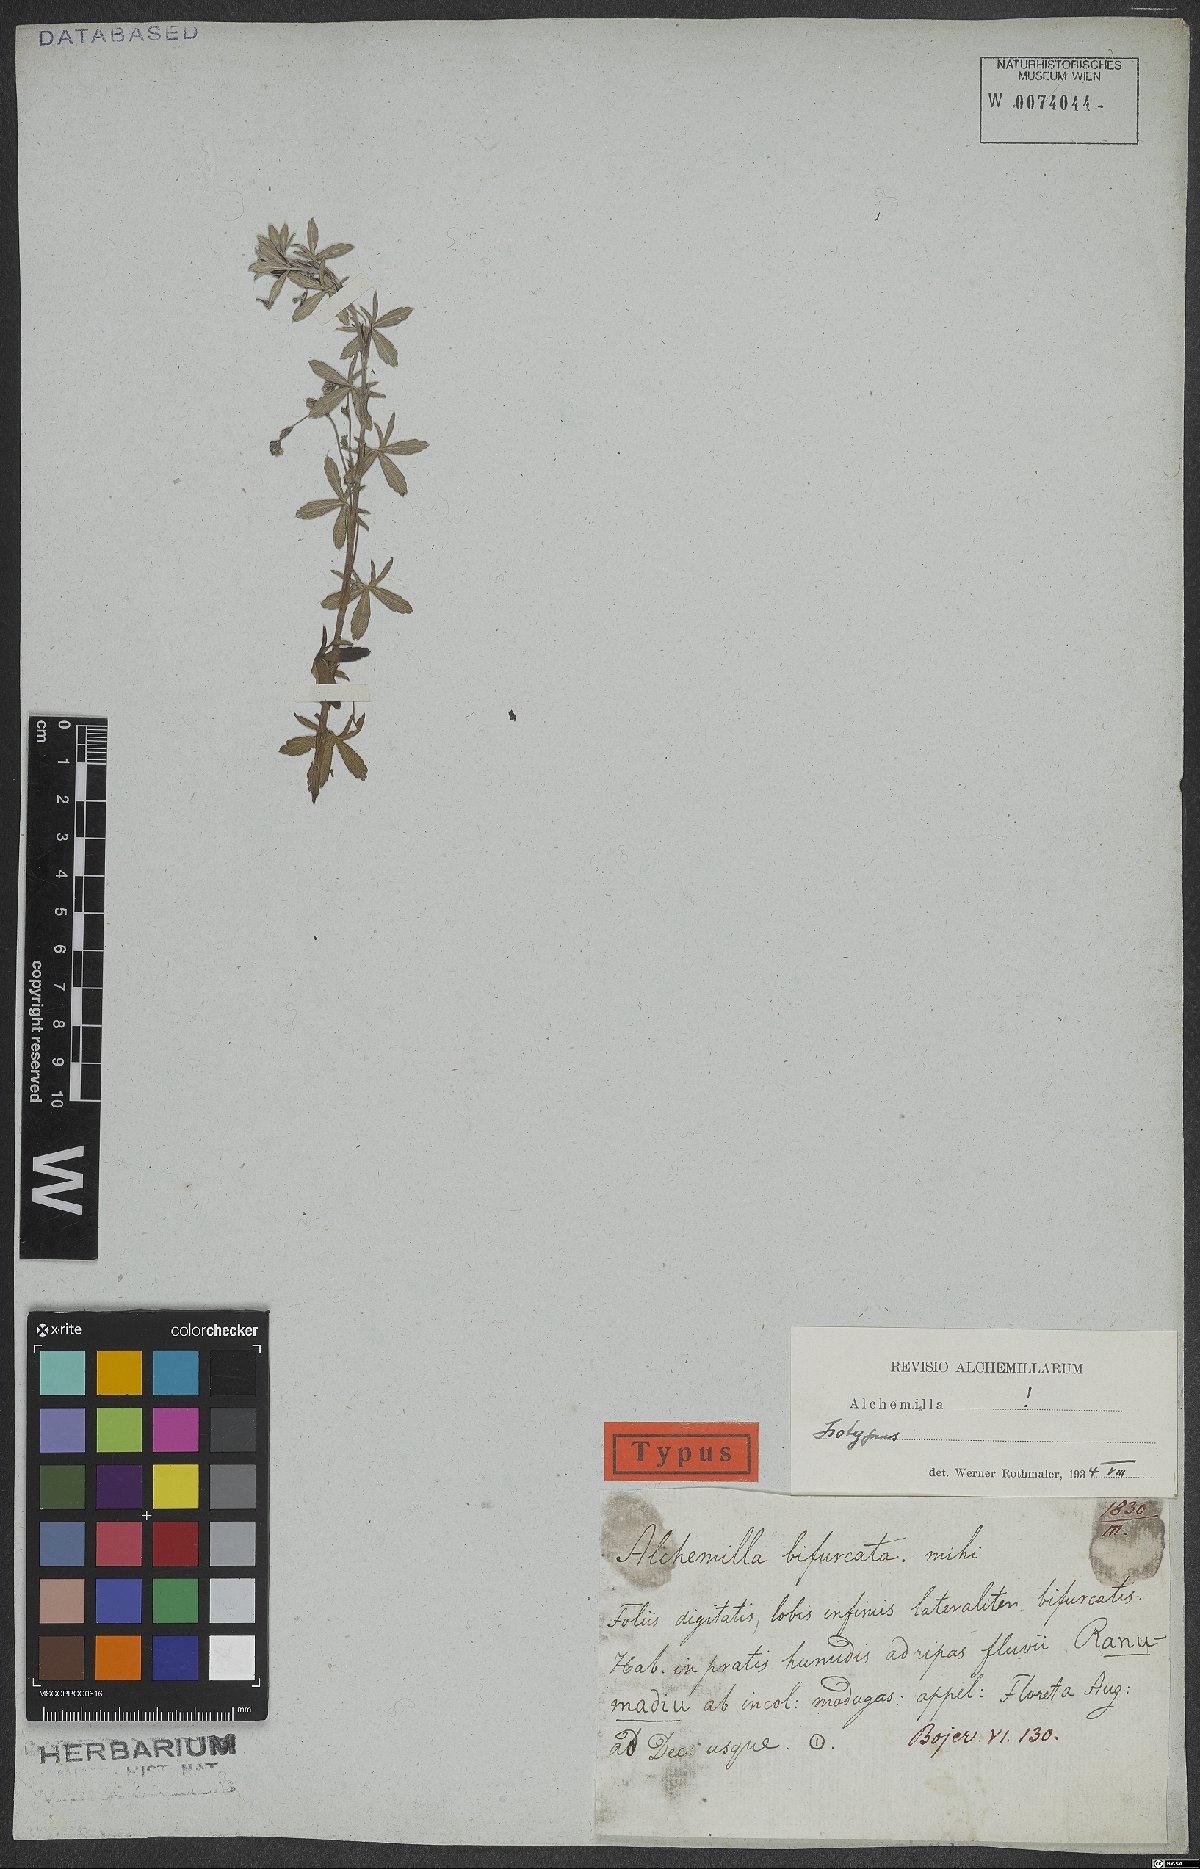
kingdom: Plantae
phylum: Tracheophyta
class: Magnoliopsida
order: Rosales
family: Rosaceae
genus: Alchemilla
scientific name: Alchemilla bifurcata
